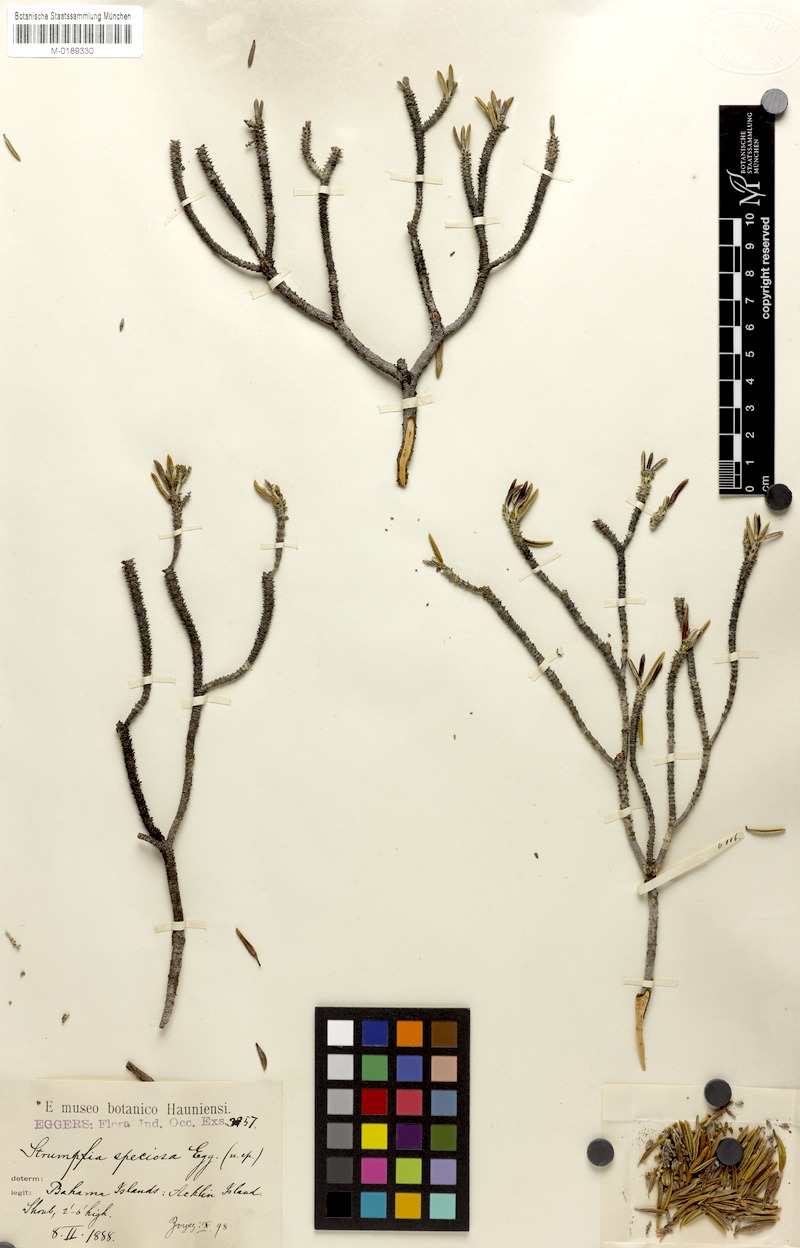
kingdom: Plantae
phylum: Tracheophyta
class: Magnoliopsida
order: Gentianales
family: Rubiaceae
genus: Strumpfia
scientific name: Strumpfia
